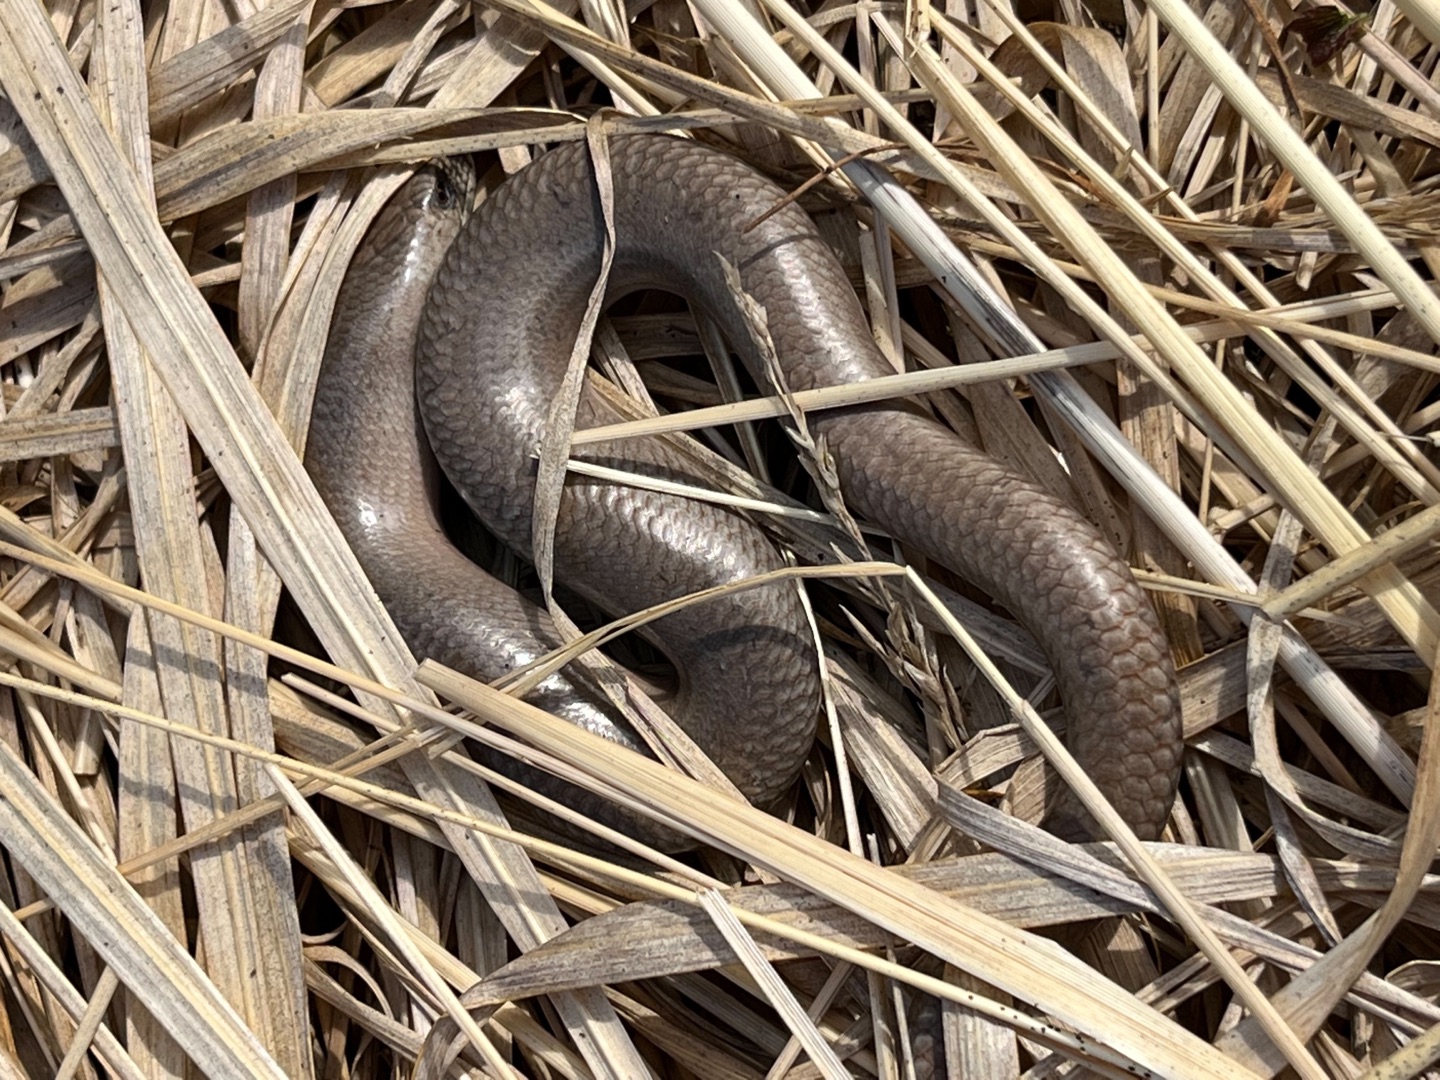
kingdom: Animalia
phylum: Chordata
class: Squamata
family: Anguidae
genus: Anguis
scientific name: Anguis fragilis
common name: Stålorm
